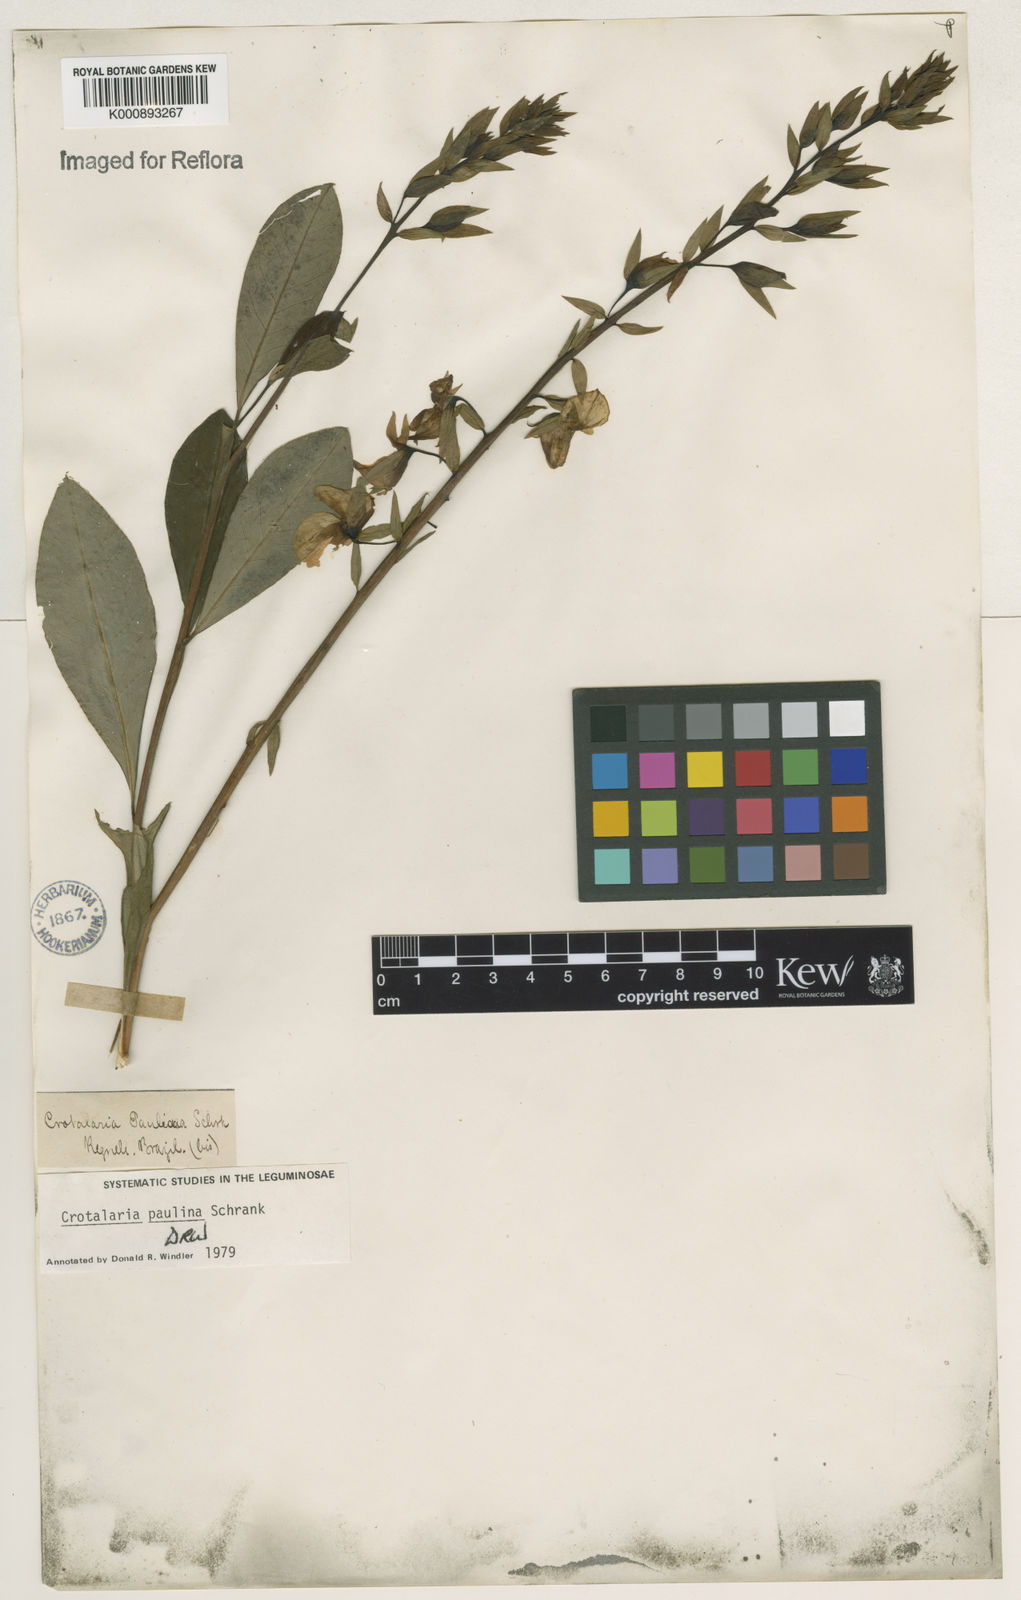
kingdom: Plantae
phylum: Tracheophyta
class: Magnoliopsida
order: Fabales
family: Fabaceae
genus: Crotalaria
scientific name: Crotalaria paulina
